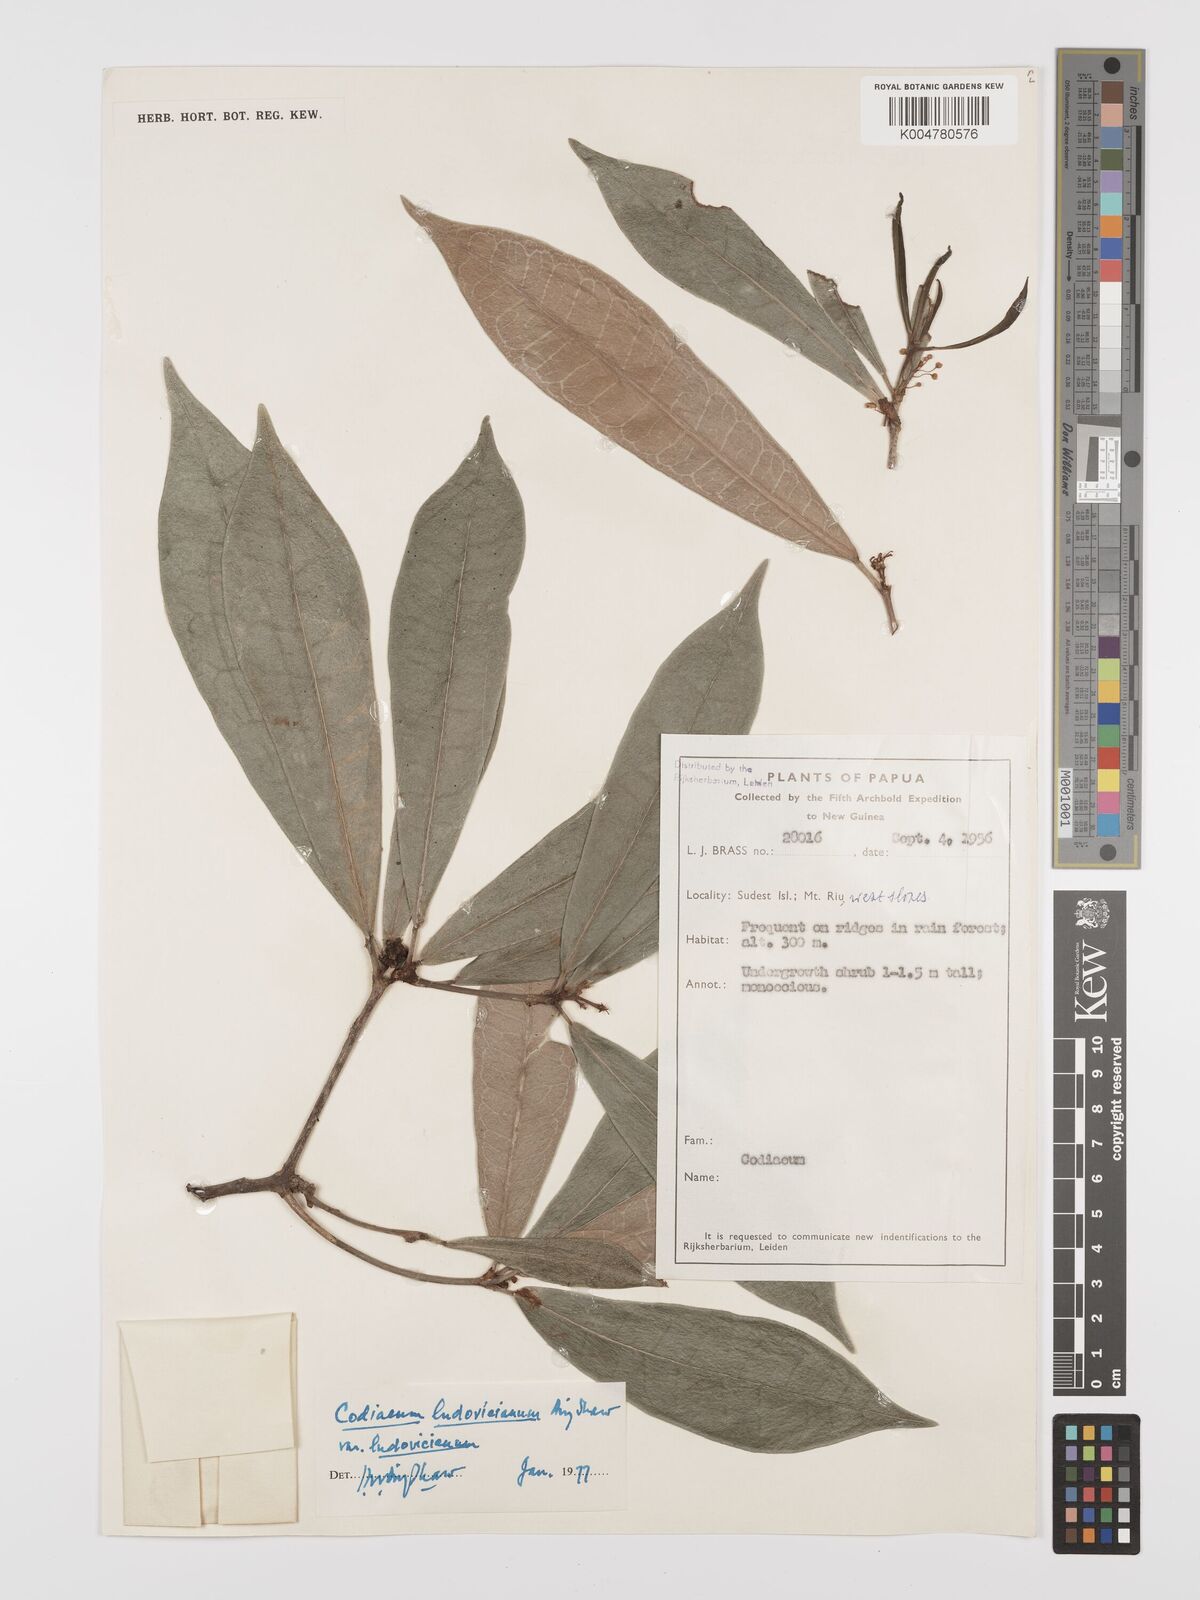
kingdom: Plantae
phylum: Tracheophyta
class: Magnoliopsida
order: Malpighiales
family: Euphorbiaceae
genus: Codiaeum
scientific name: Codiaeum ludovicianum
